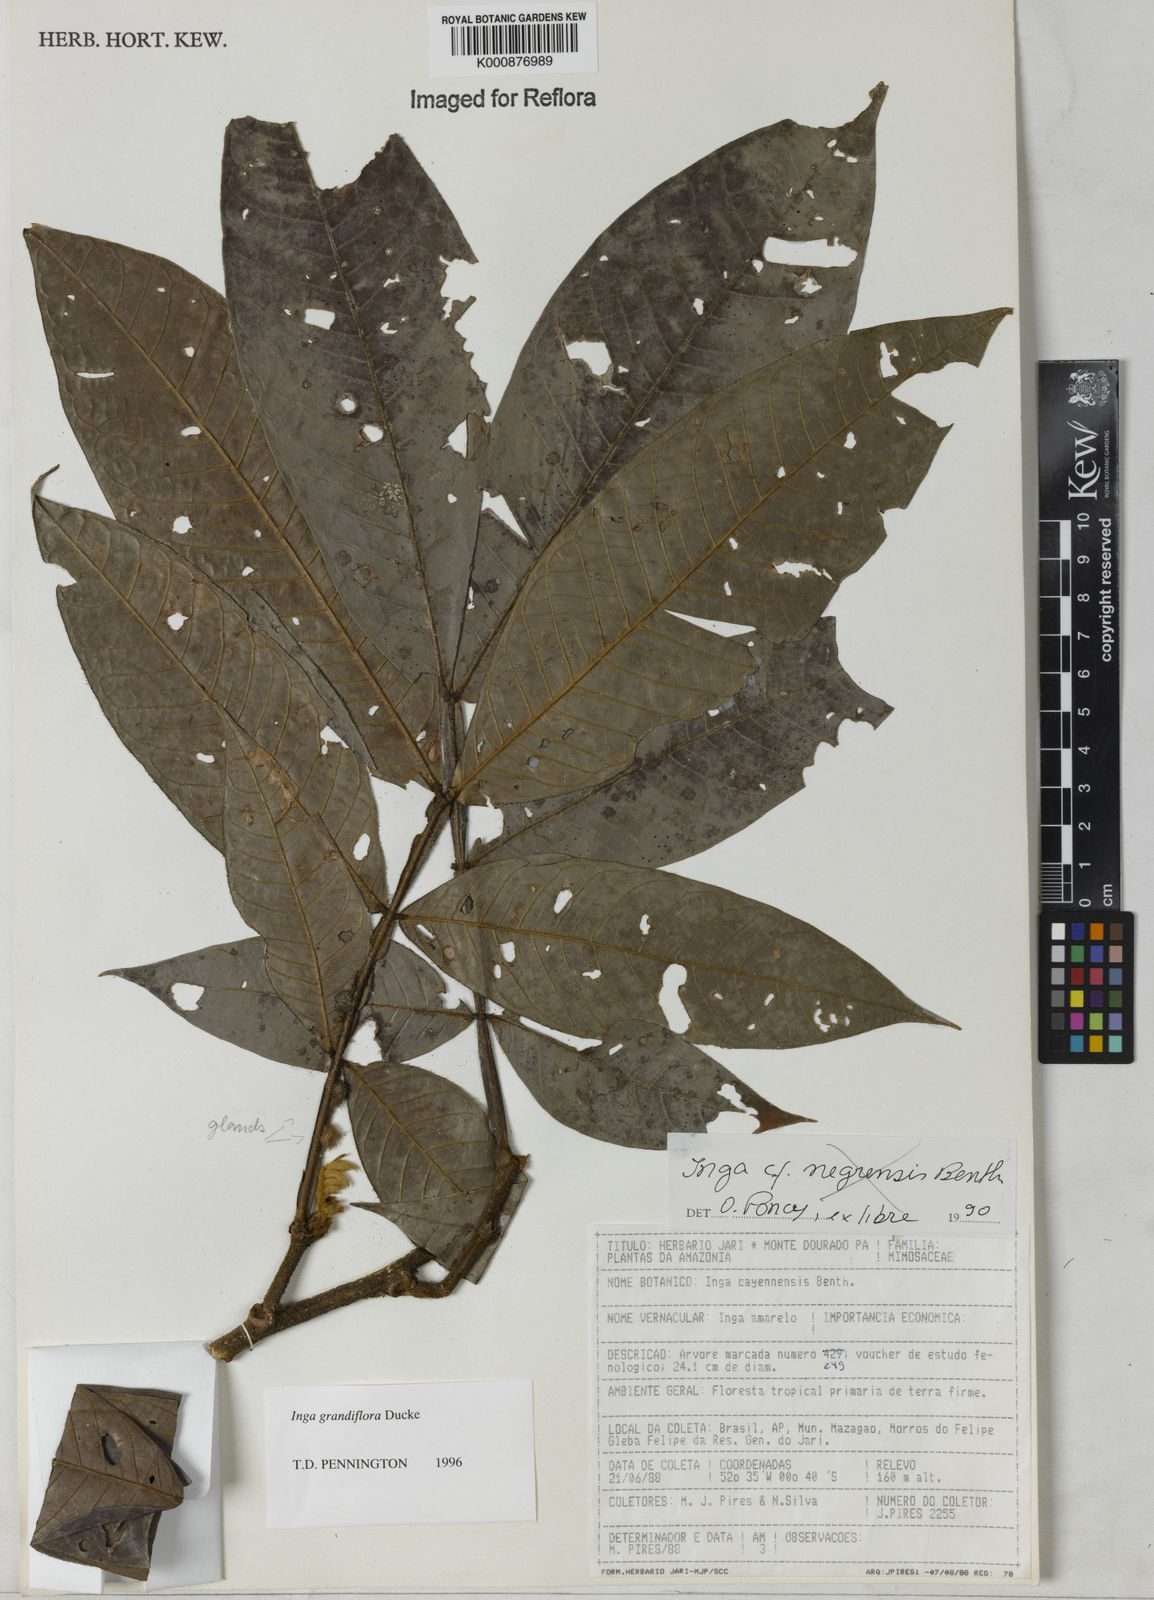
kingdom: Plantae
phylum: Tracheophyta
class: Magnoliopsida
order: Fabales
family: Fabaceae
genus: Inga
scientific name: Inga crassiflora
